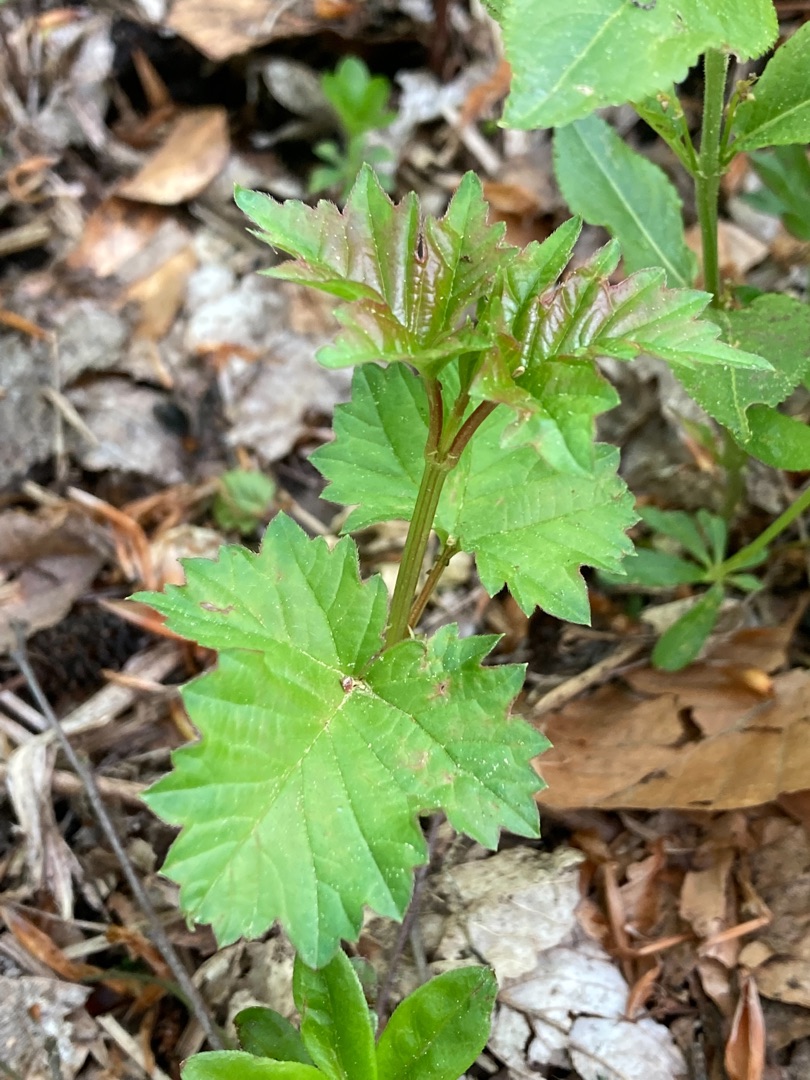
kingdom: Plantae
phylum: Tracheophyta
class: Magnoliopsida
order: Dipsacales
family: Viburnaceae
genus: Viburnum
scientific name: Viburnum opulus
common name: Kvalkved
